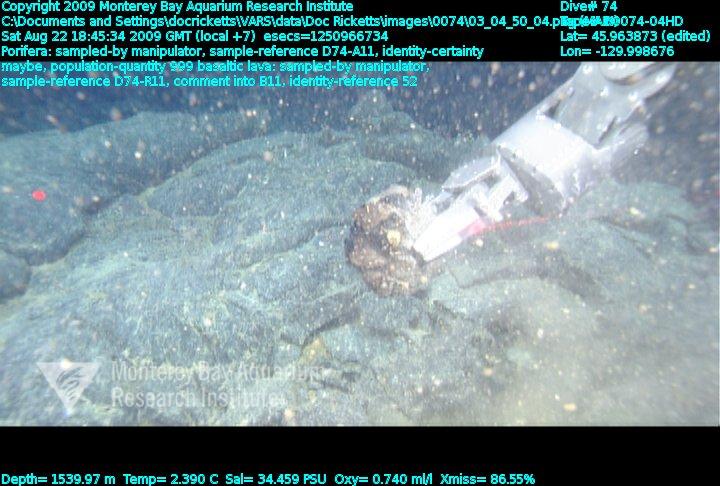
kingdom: Animalia
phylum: Porifera
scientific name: Porifera
